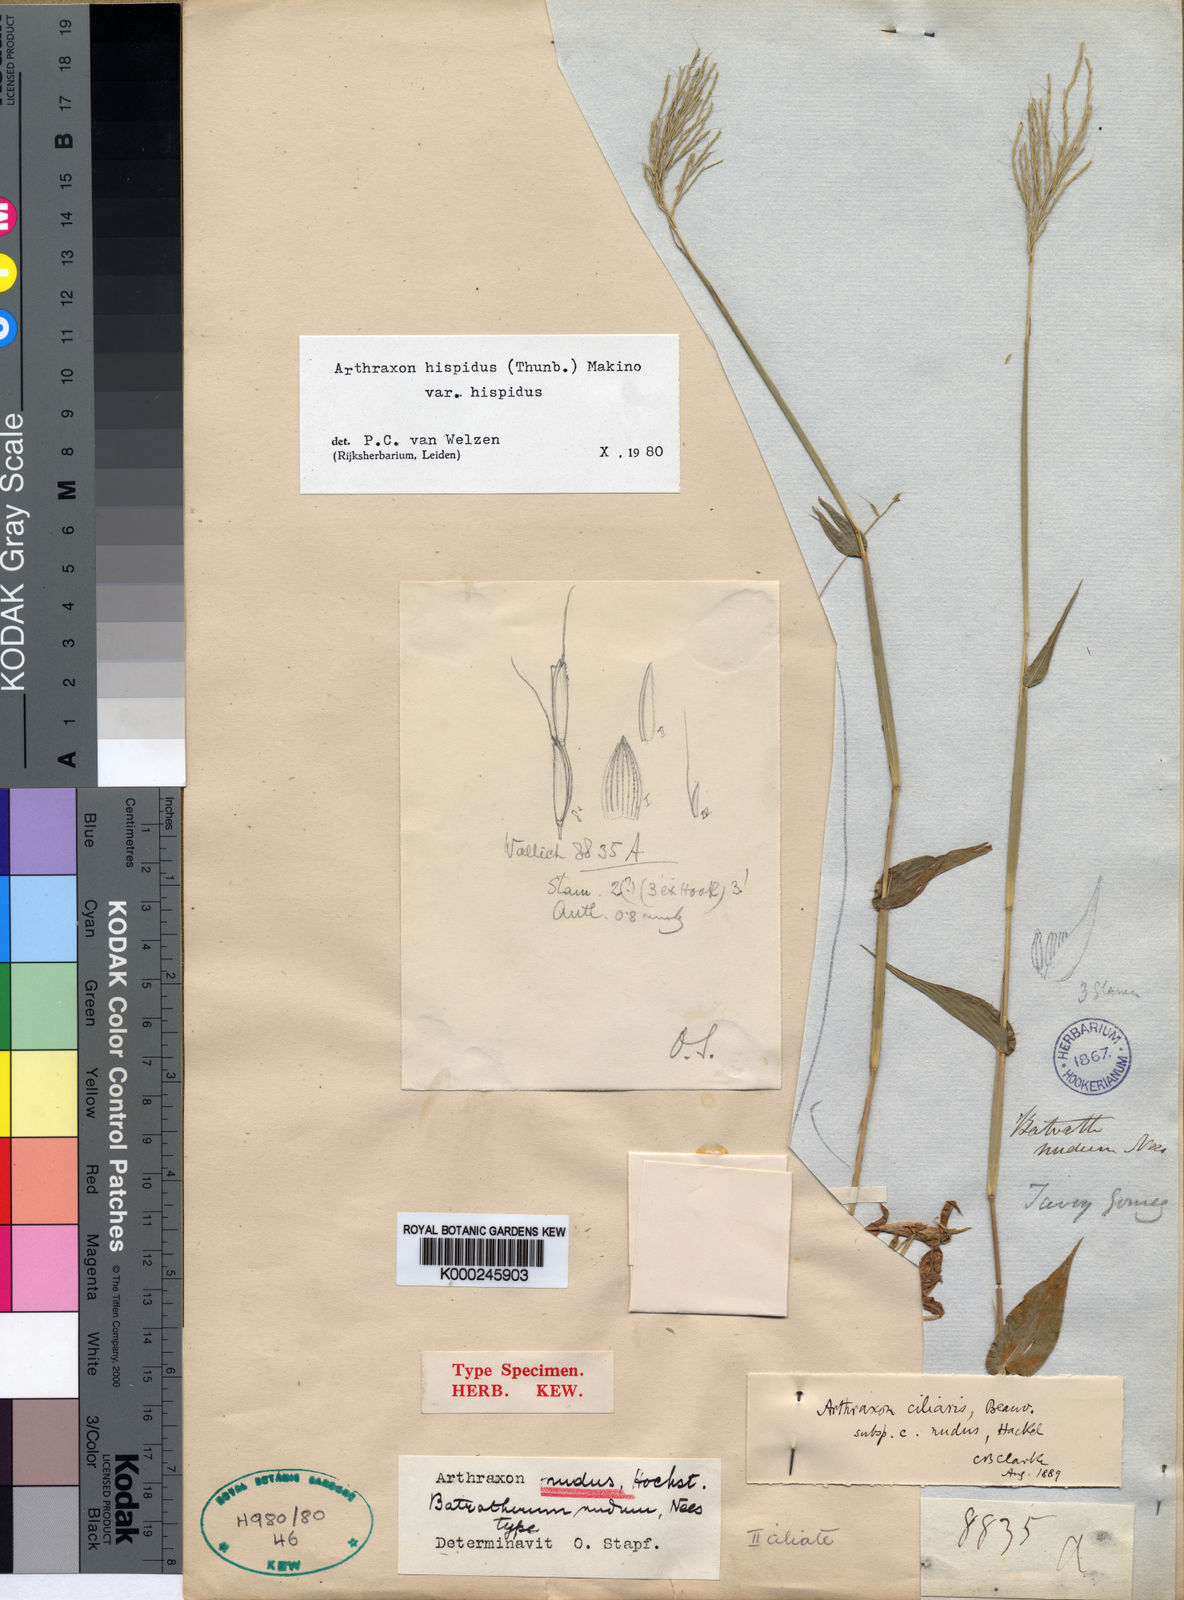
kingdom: Plantae
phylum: Tracheophyta
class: Liliopsida
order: Poales
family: Poaceae
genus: Arthraxon
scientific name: Arthraxon nudus
